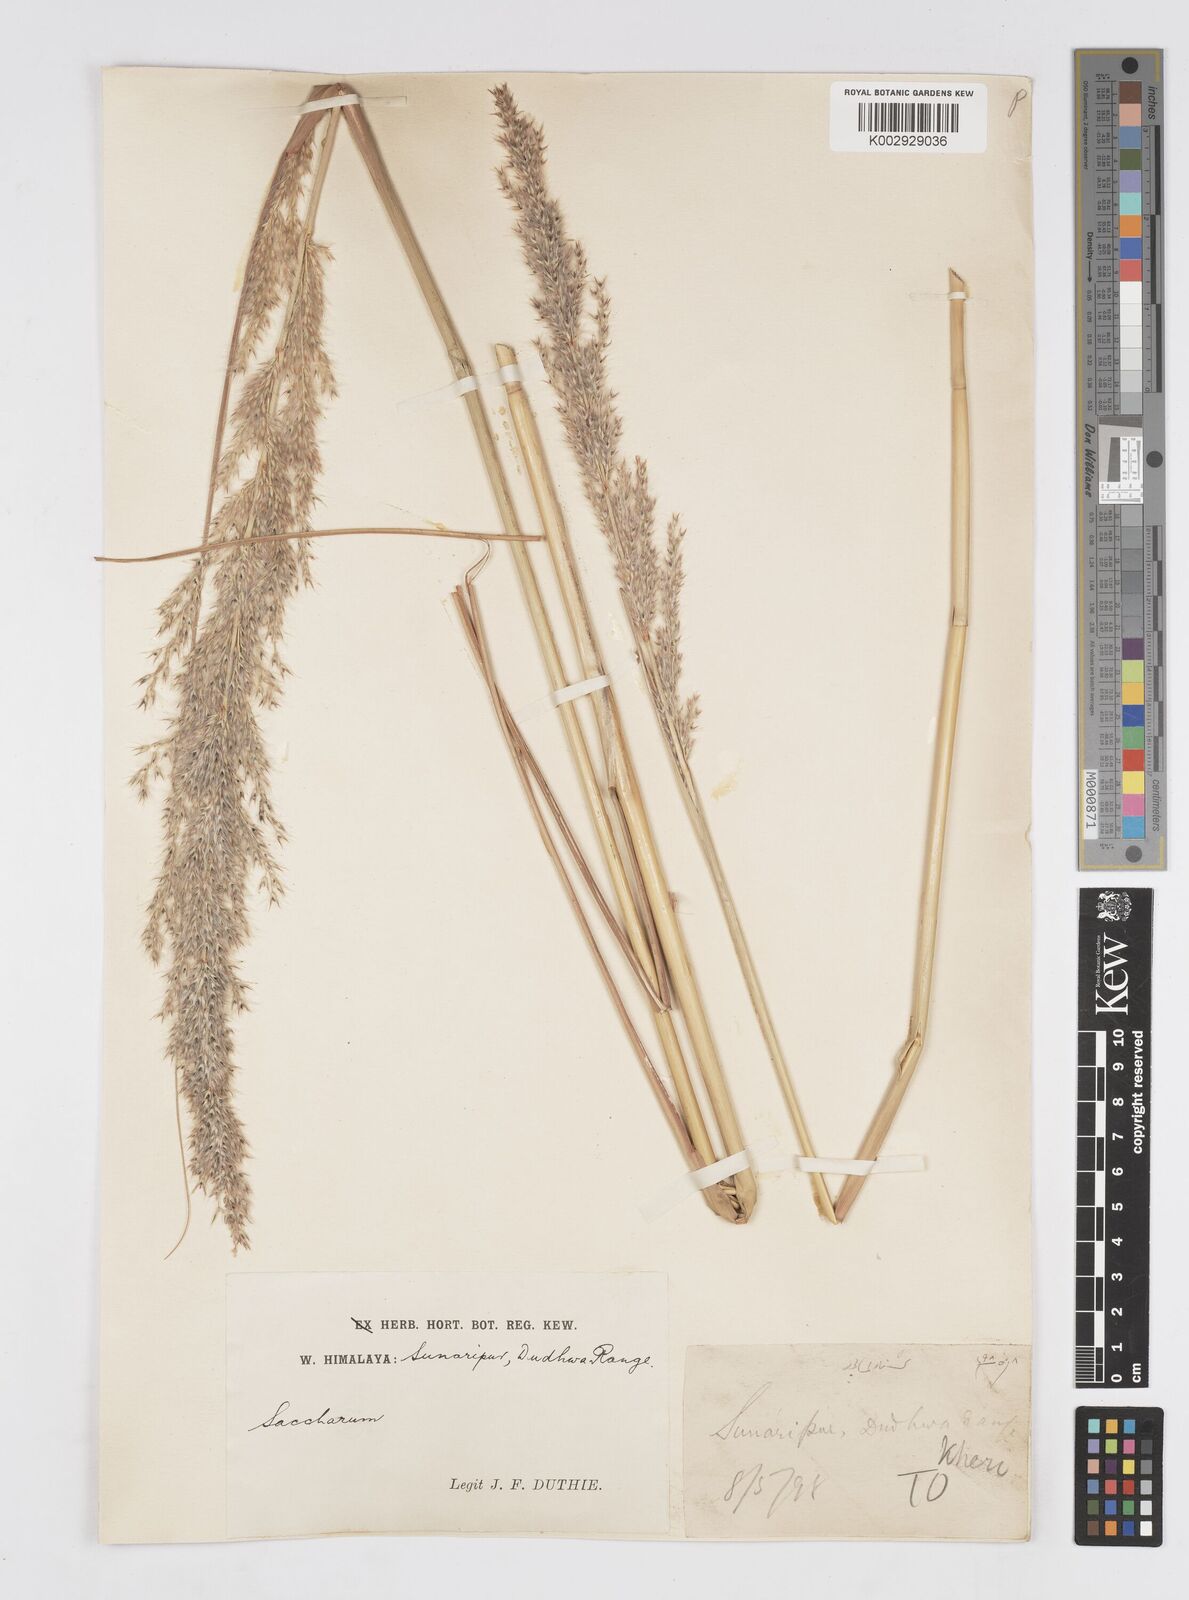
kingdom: Plantae
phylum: Tracheophyta
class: Liliopsida
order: Poales
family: Poaceae
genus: Tripidium
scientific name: Tripidium arundinaceum
